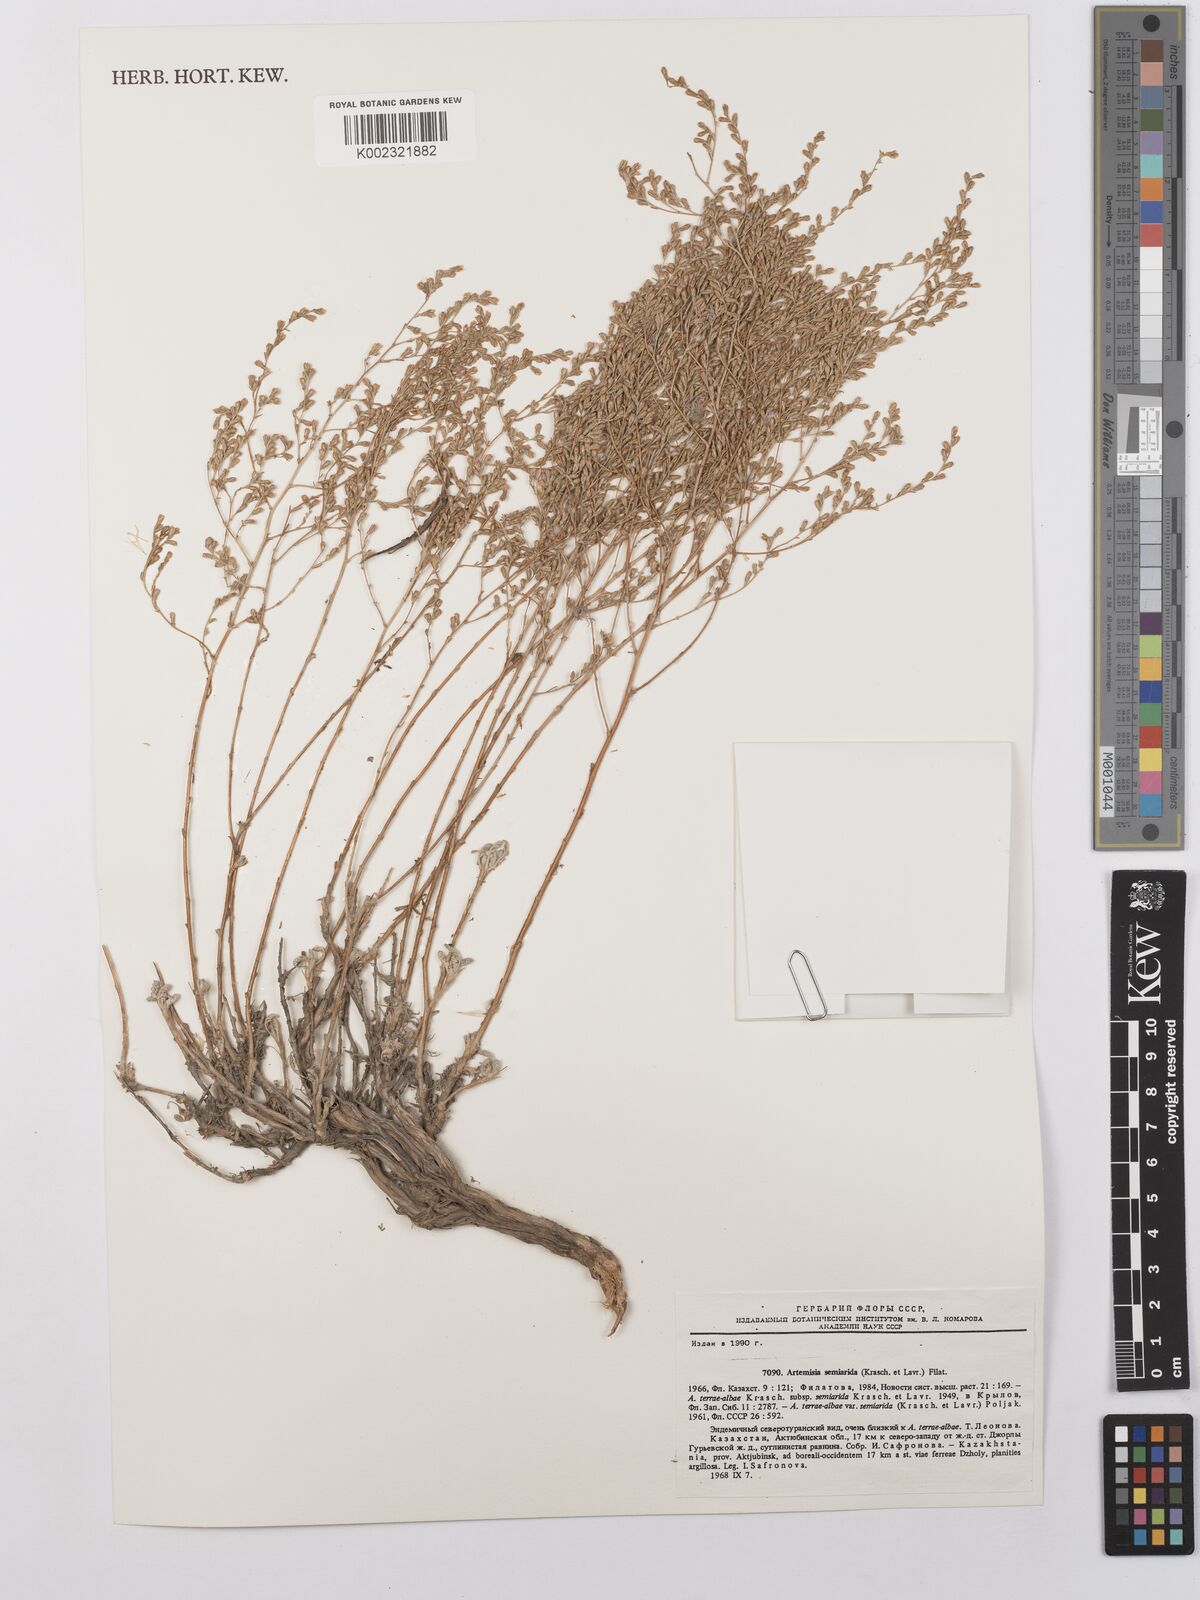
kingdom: Plantae
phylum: Tracheophyta
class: Magnoliopsida
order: Asterales
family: Asteraceae
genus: Artemisia
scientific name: Artemisia semiarida
